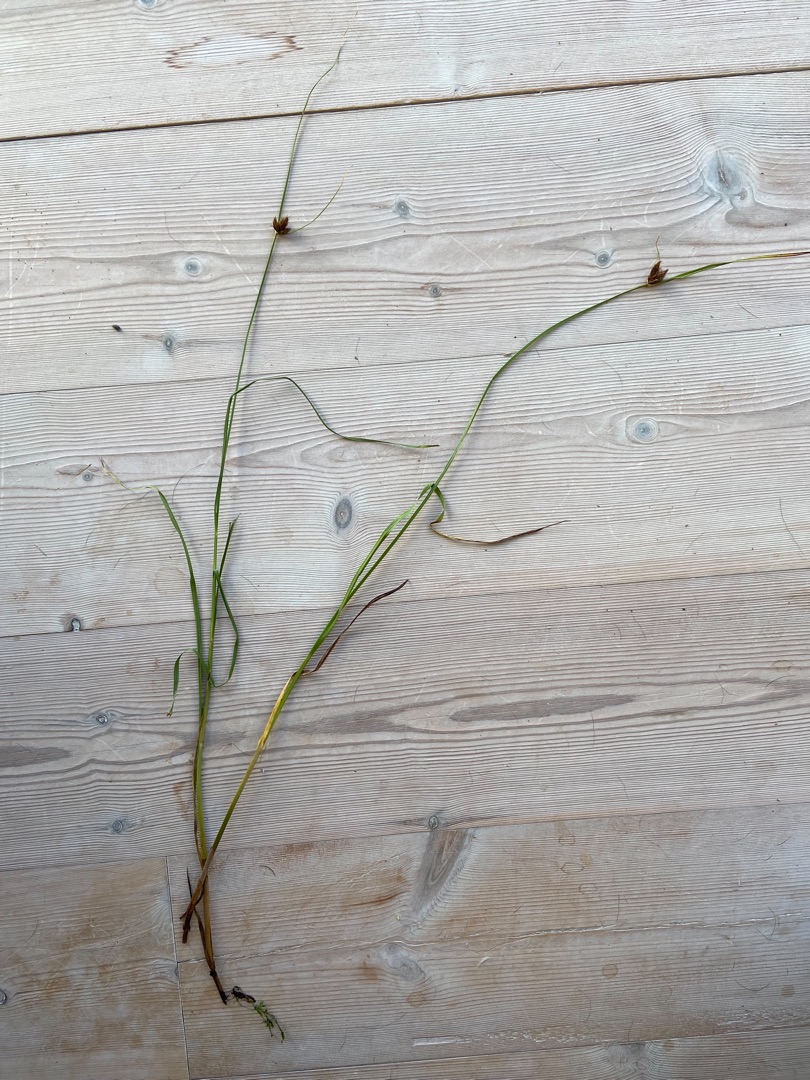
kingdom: Plantae
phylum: Tracheophyta
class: Liliopsida
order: Poales
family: Cyperaceae
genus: Bolboschoenus
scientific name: Bolboschoenus maritimus
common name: Strand-kogleaks
